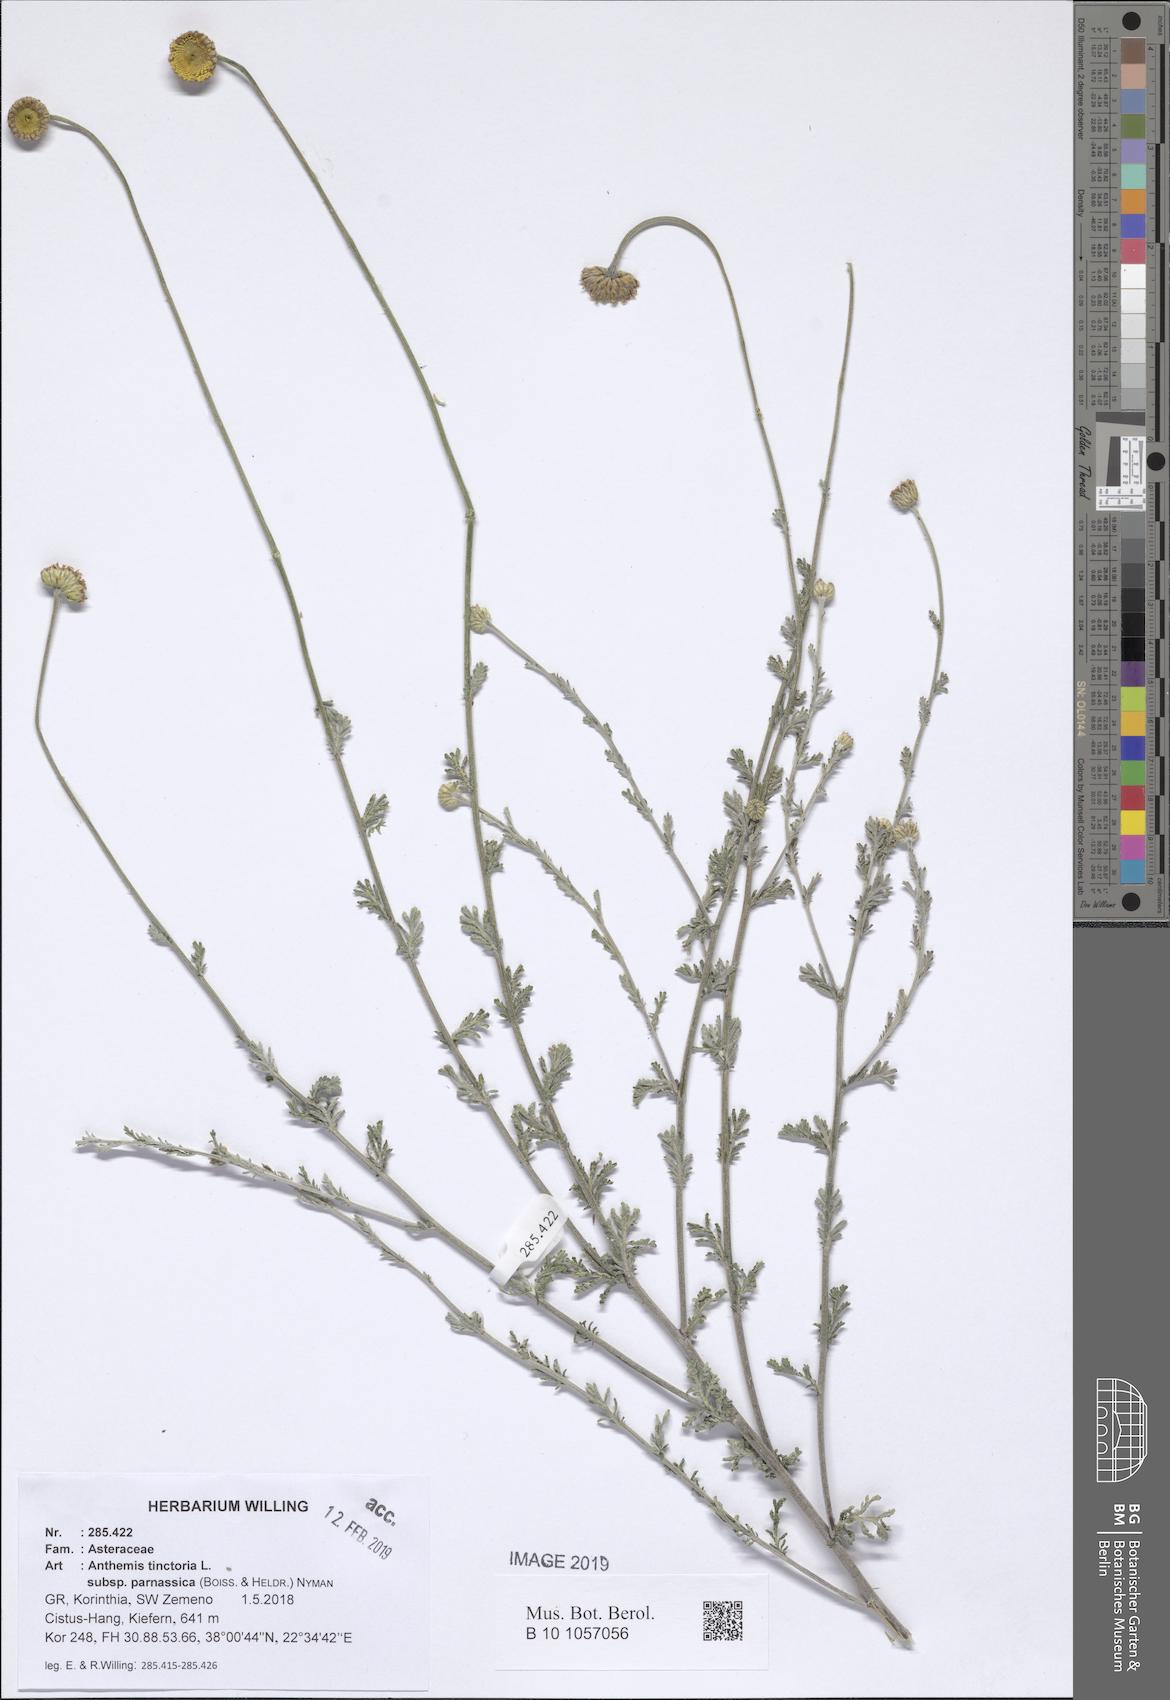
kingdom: Plantae
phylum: Tracheophyta
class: Magnoliopsida
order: Asterales
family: Asteraceae
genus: Cota
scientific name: Cota tinctoria
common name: Golden chamomile
